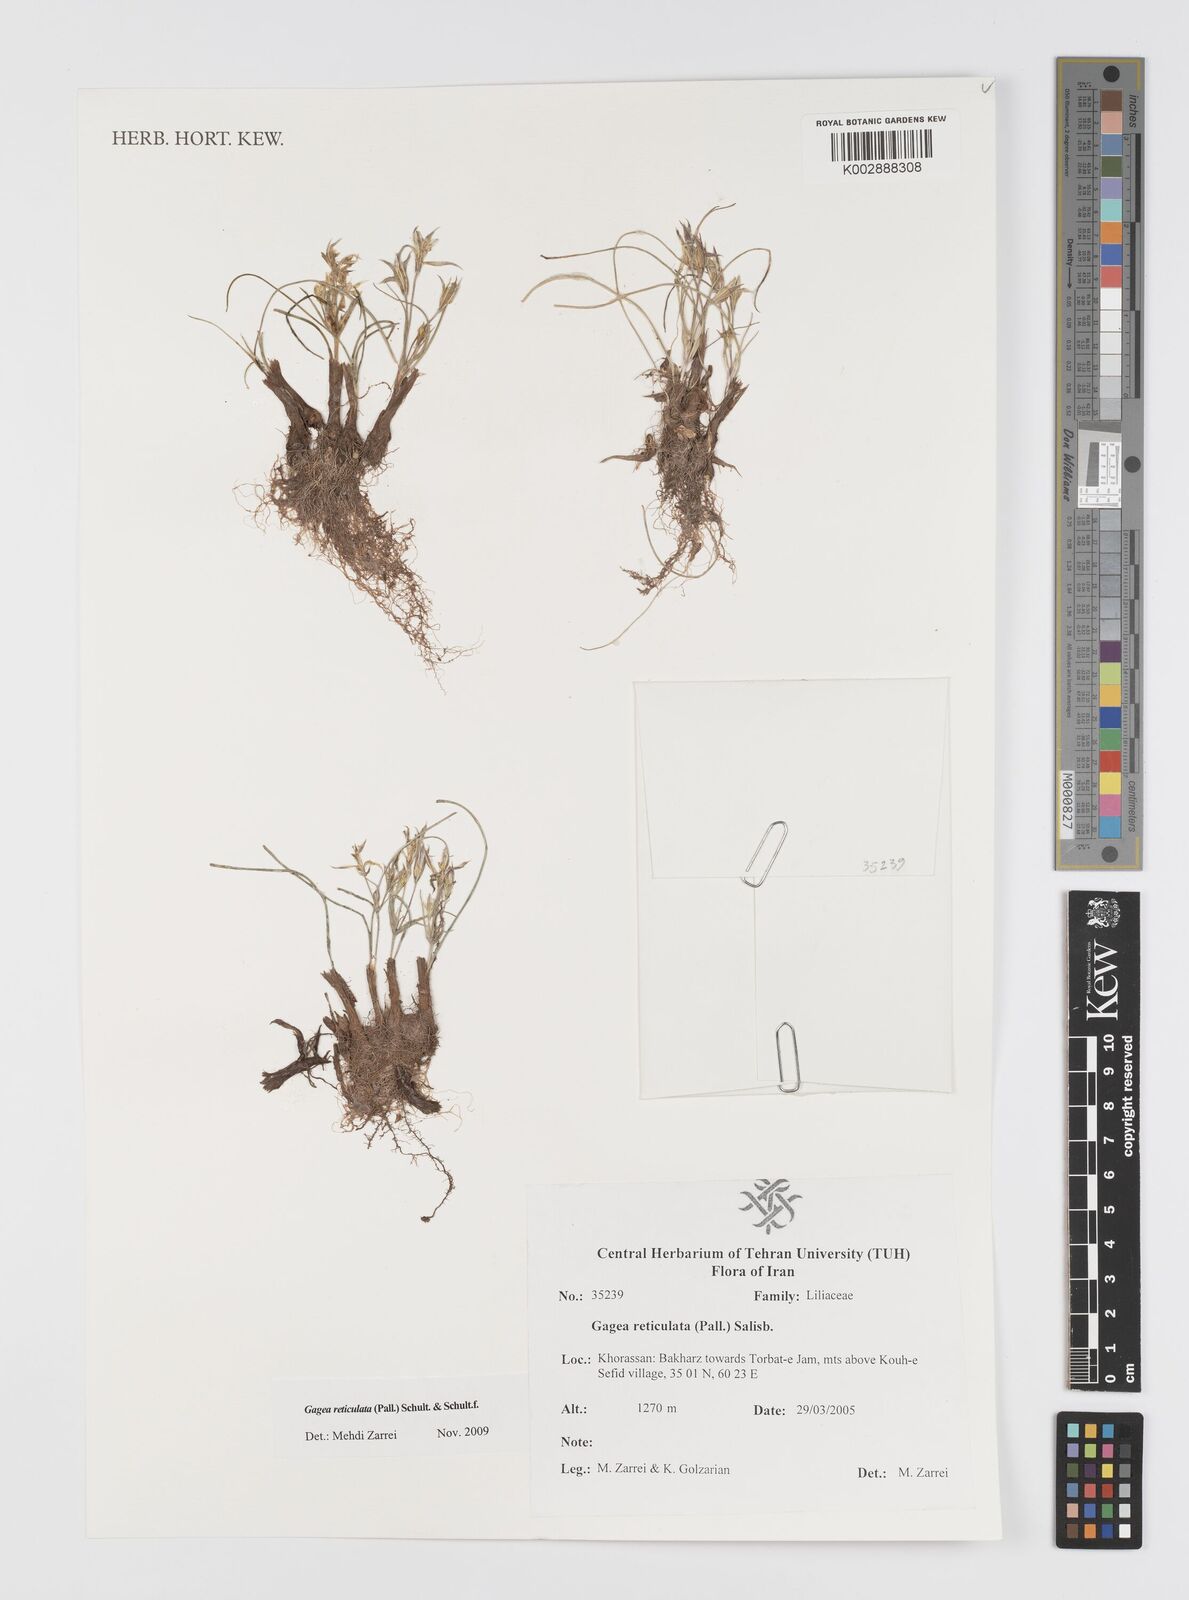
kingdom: Plantae
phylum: Tracheophyta
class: Liliopsida
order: Liliales
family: Liliaceae
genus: Gagea
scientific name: Gagea reticulata
